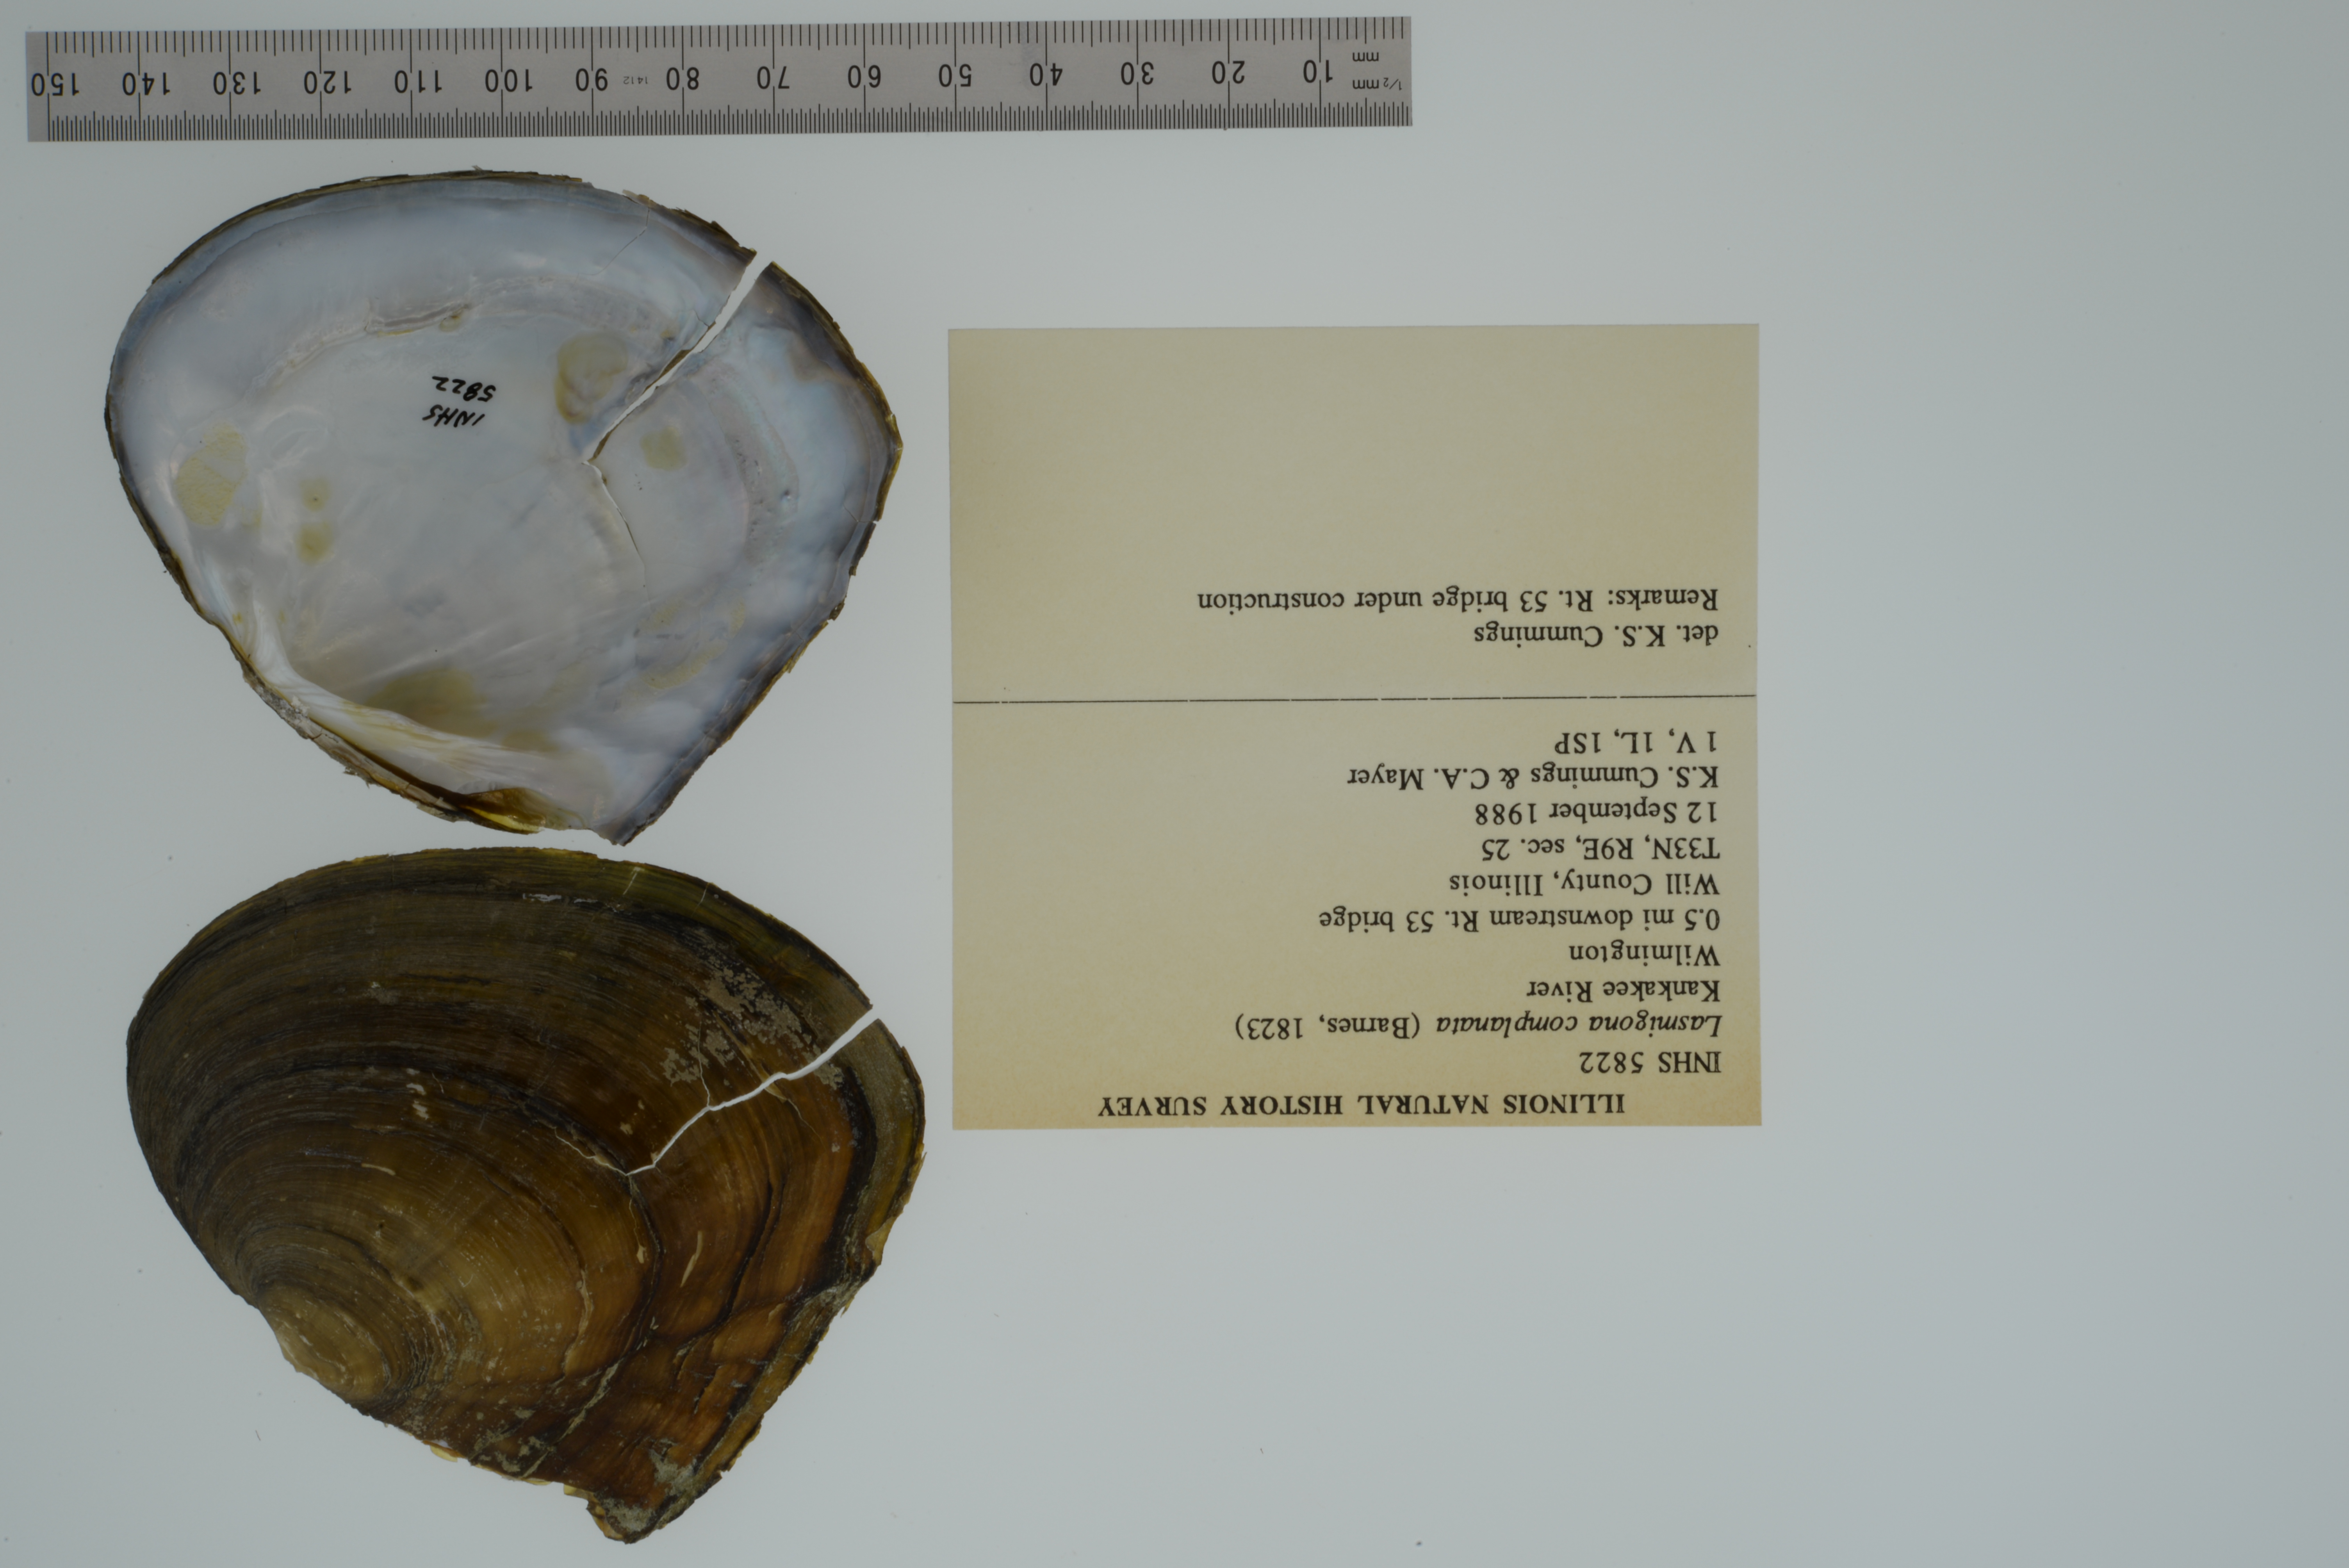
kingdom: Animalia
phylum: Mollusca
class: Bivalvia
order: Unionida
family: Unionidae
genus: Lasmigona
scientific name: Lasmigona complanata
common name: White heelsplitter
